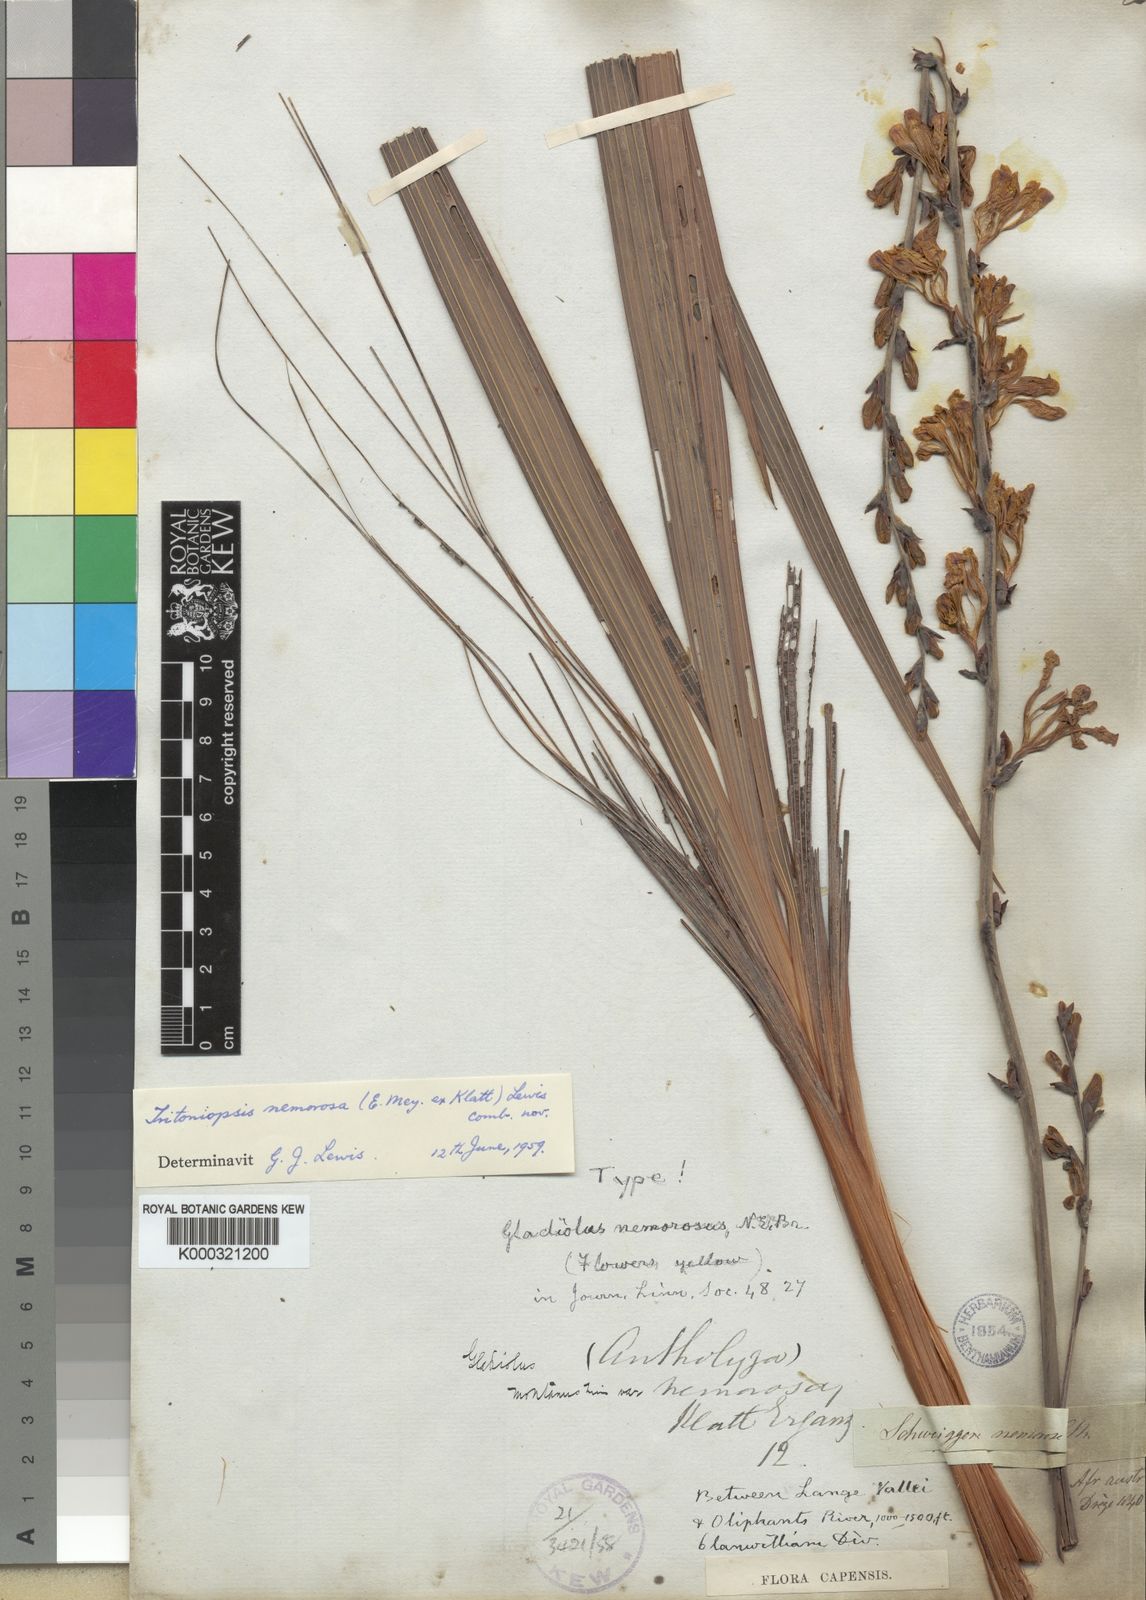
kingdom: Plantae
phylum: Tracheophyta
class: Liliopsida
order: Asparagales
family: Iridaceae
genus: Tritoniopsis
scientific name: Tritoniopsis nemorosa
